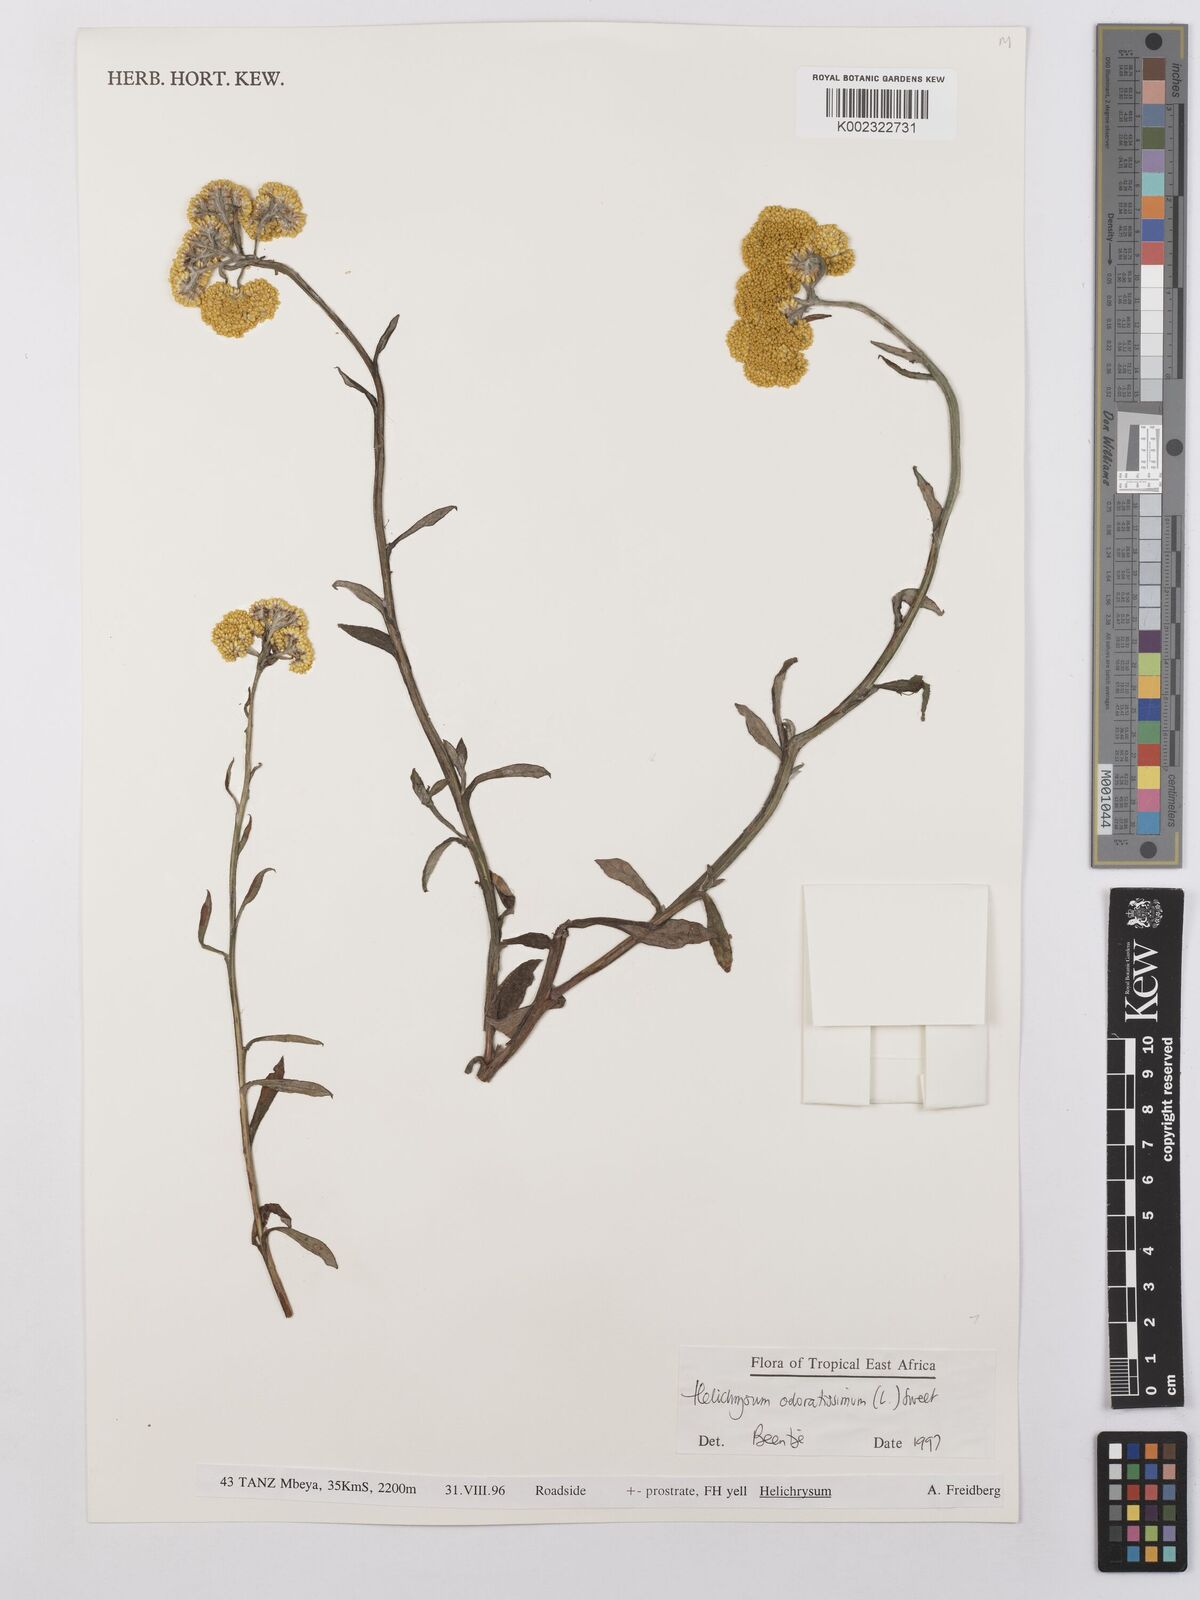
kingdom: Plantae
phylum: Tracheophyta
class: Magnoliopsida
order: Asterales
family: Asteraceae
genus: Helichrysum
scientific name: Helichrysum odoratissimum
